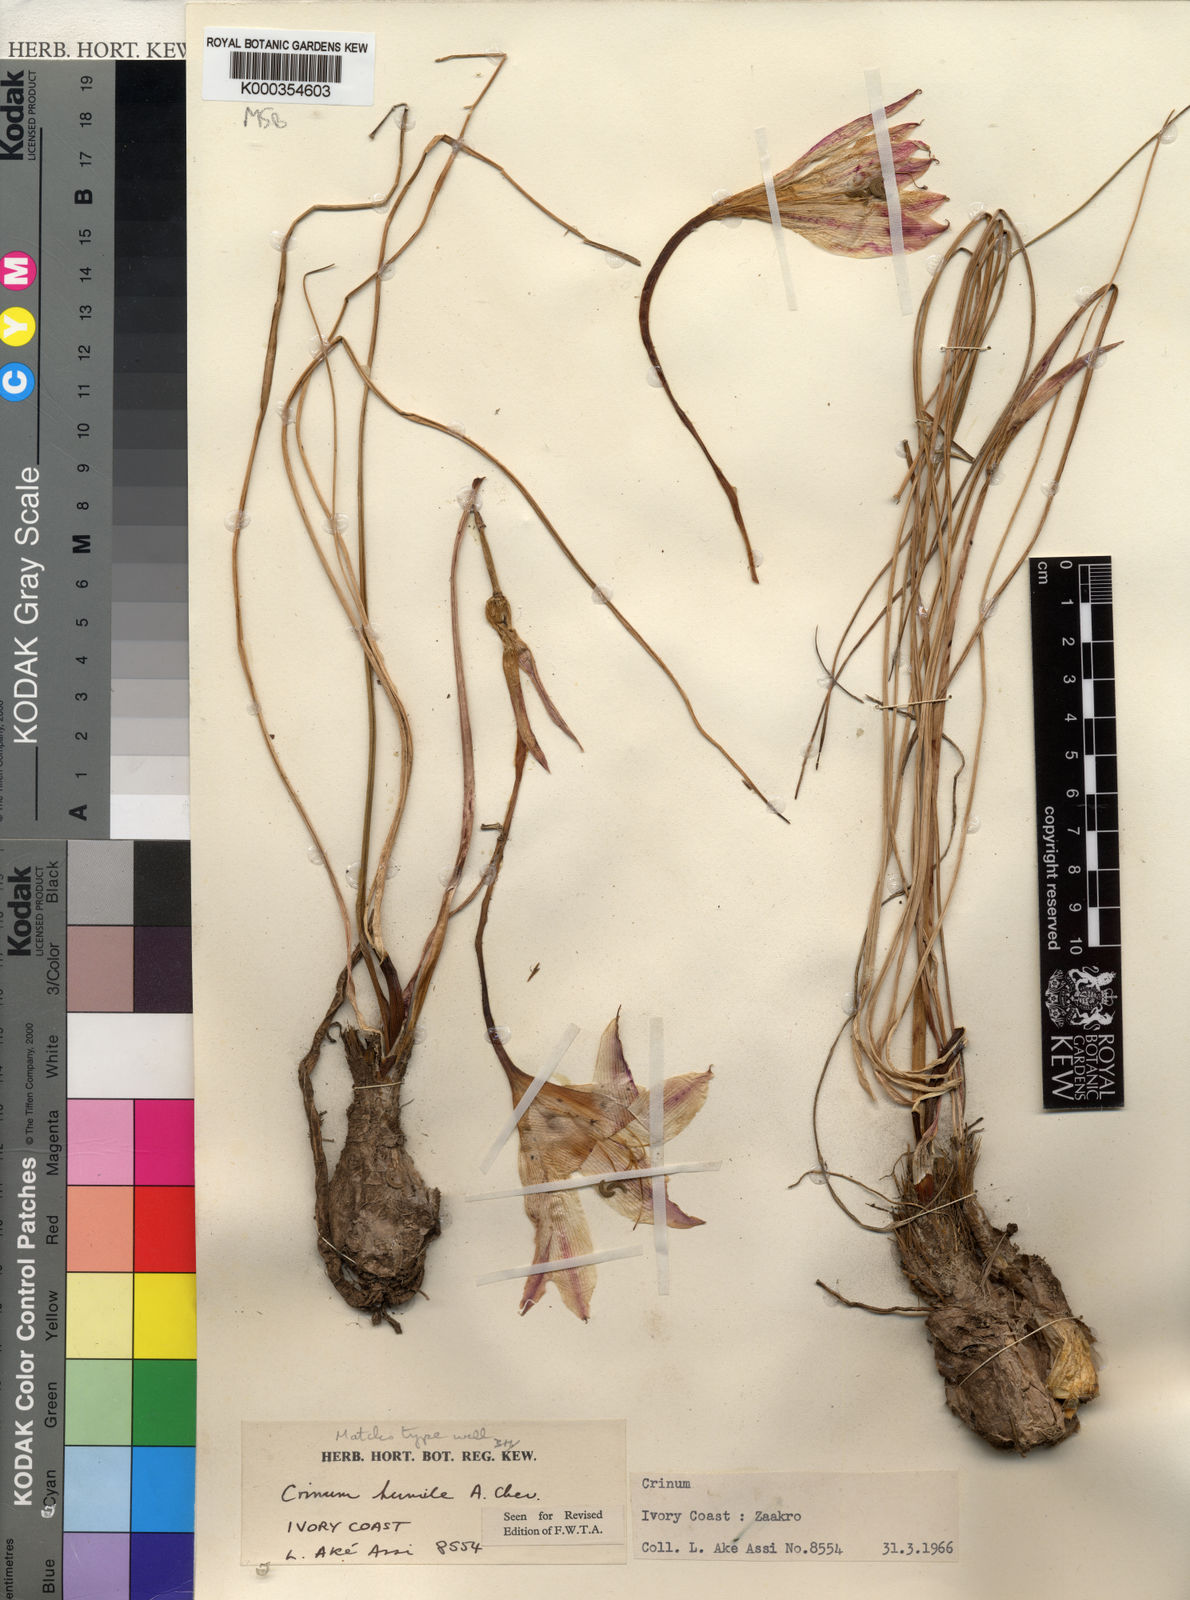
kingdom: Plantae
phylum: Tracheophyta
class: Liliopsida
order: Asparagales
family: Amaryllidaceae
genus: Crinum
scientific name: Crinum nubicum
